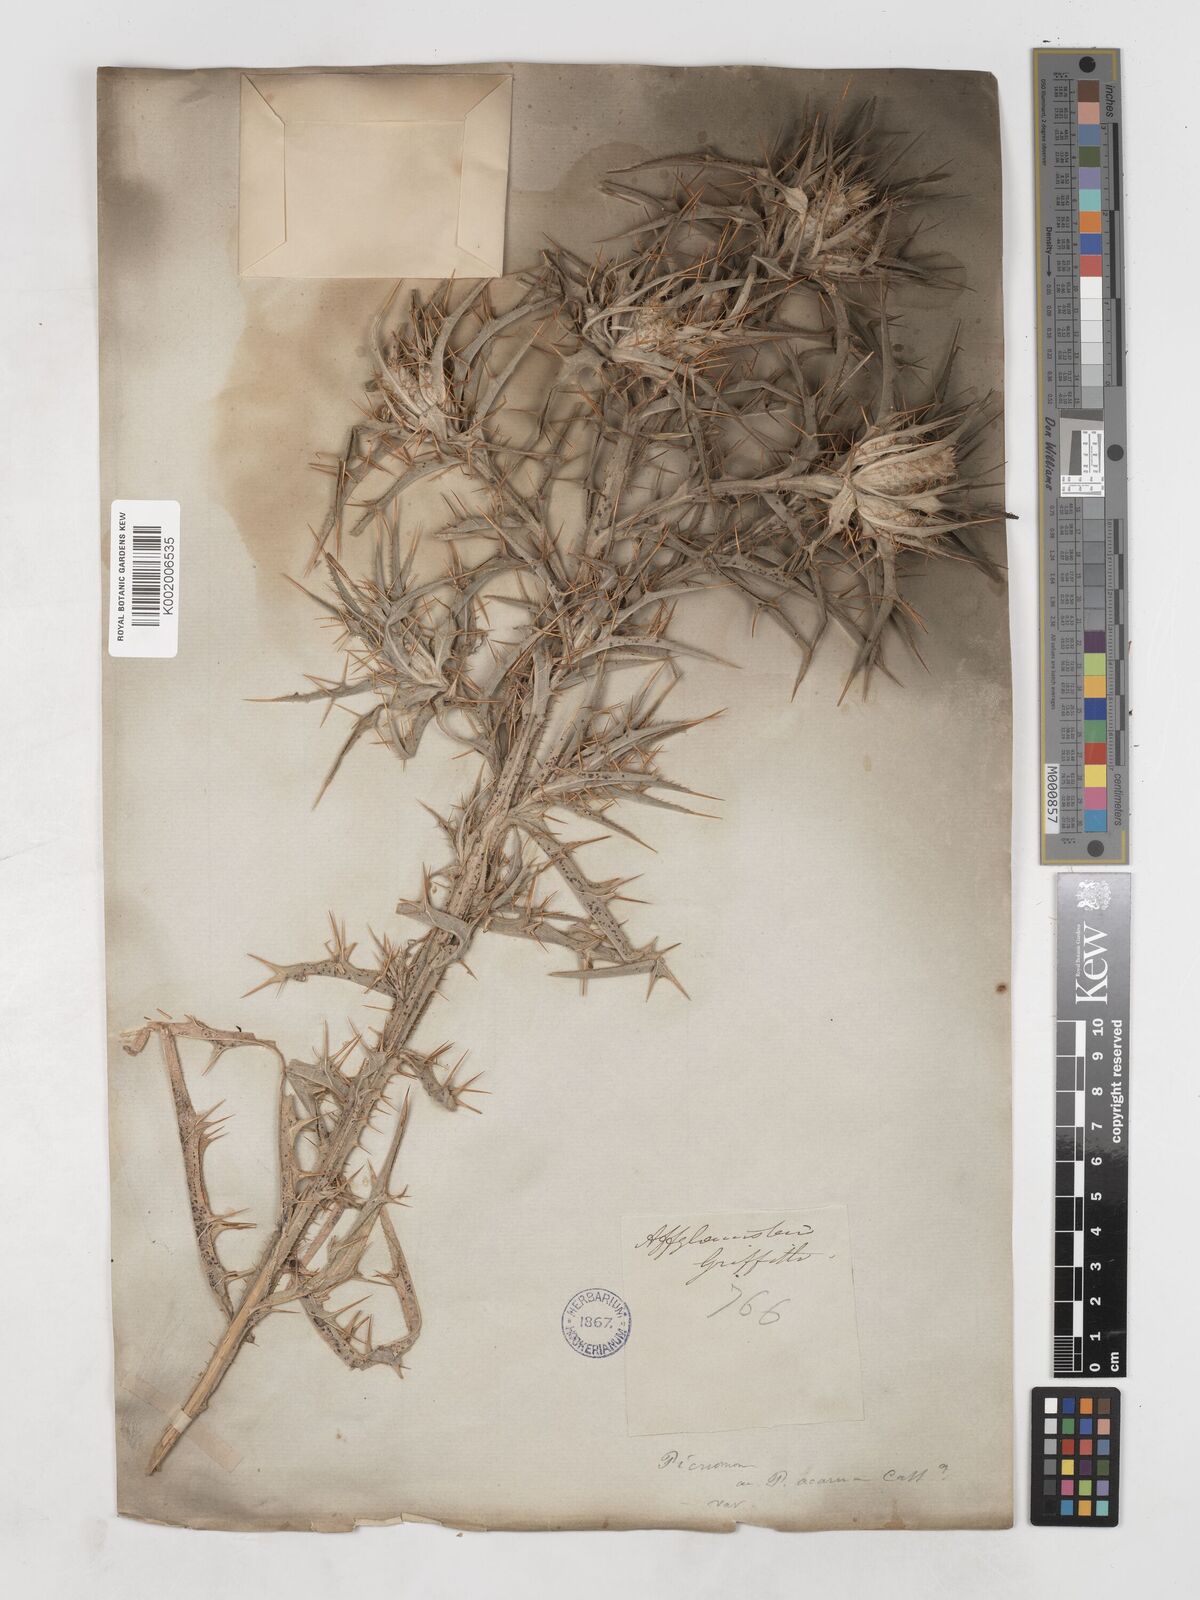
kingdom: Plantae
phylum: Tracheophyta
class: Magnoliopsida
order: Asterales
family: Asteraceae
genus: Picnomon
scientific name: Picnomon acarna
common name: Soldier thistle
